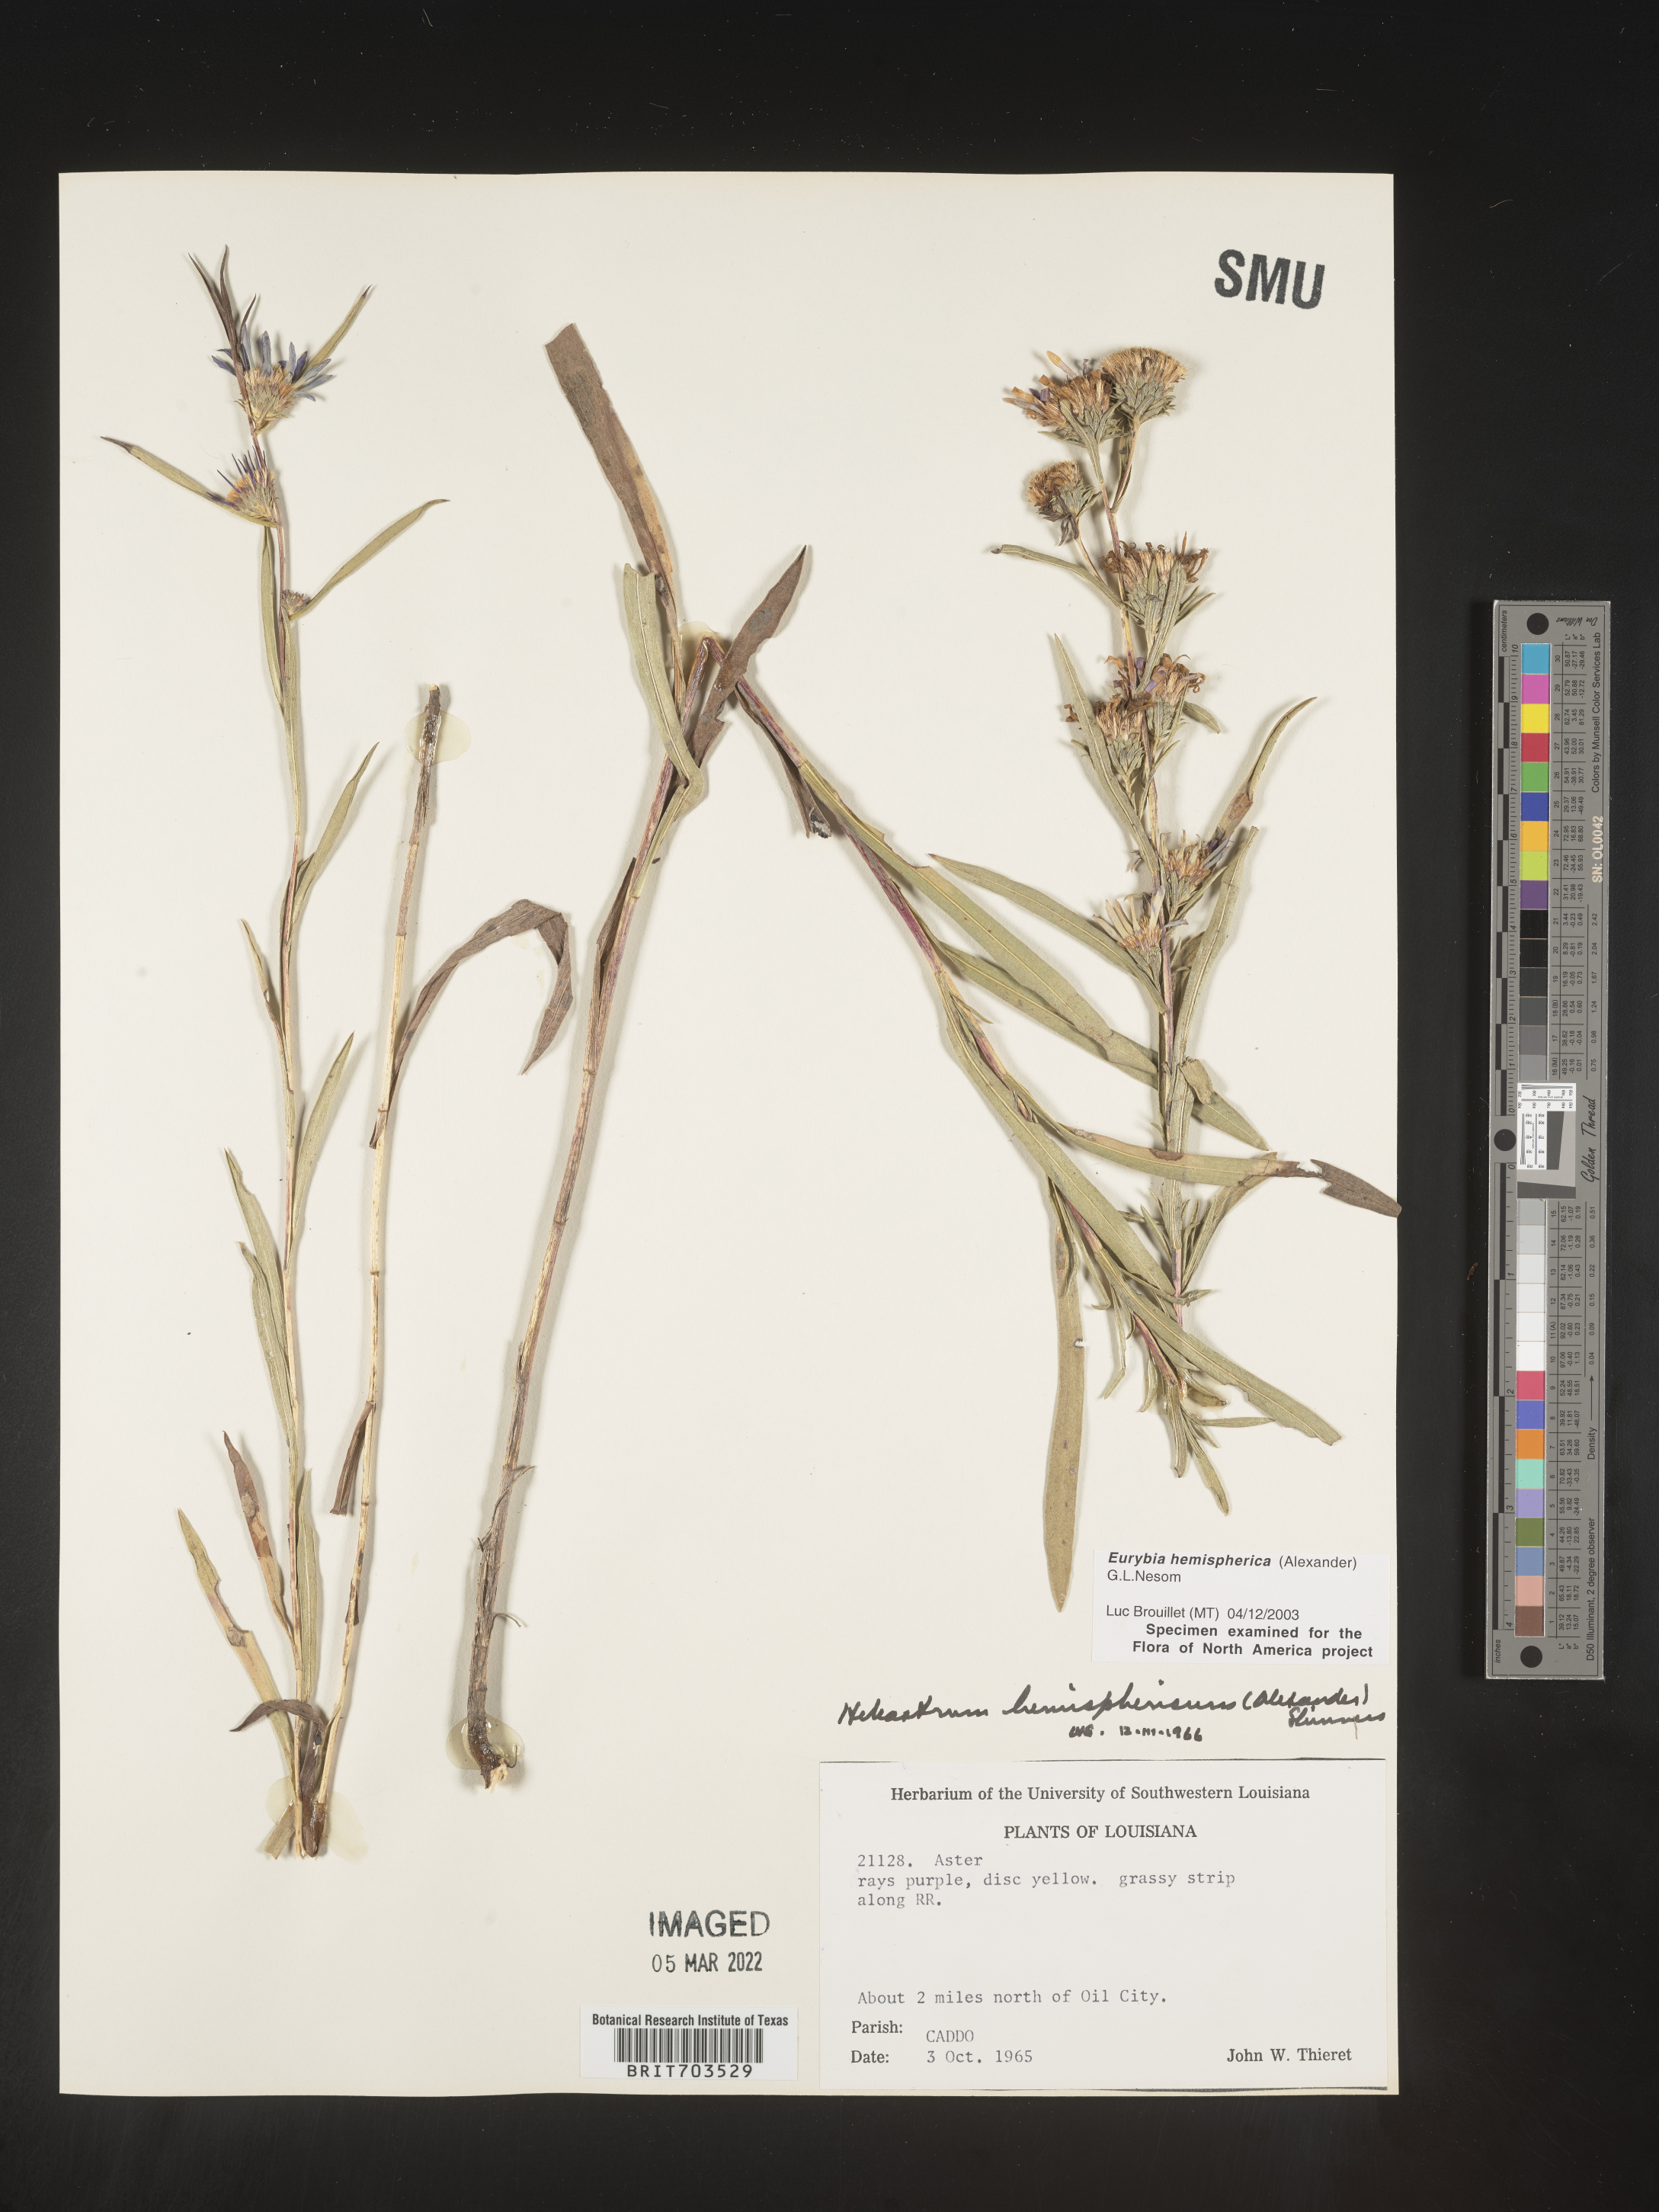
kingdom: Plantae
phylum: Tracheophyta
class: Magnoliopsida
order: Asterales
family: Asteraceae
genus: Eurybia
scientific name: Eurybia hemispherica
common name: Showy aster
